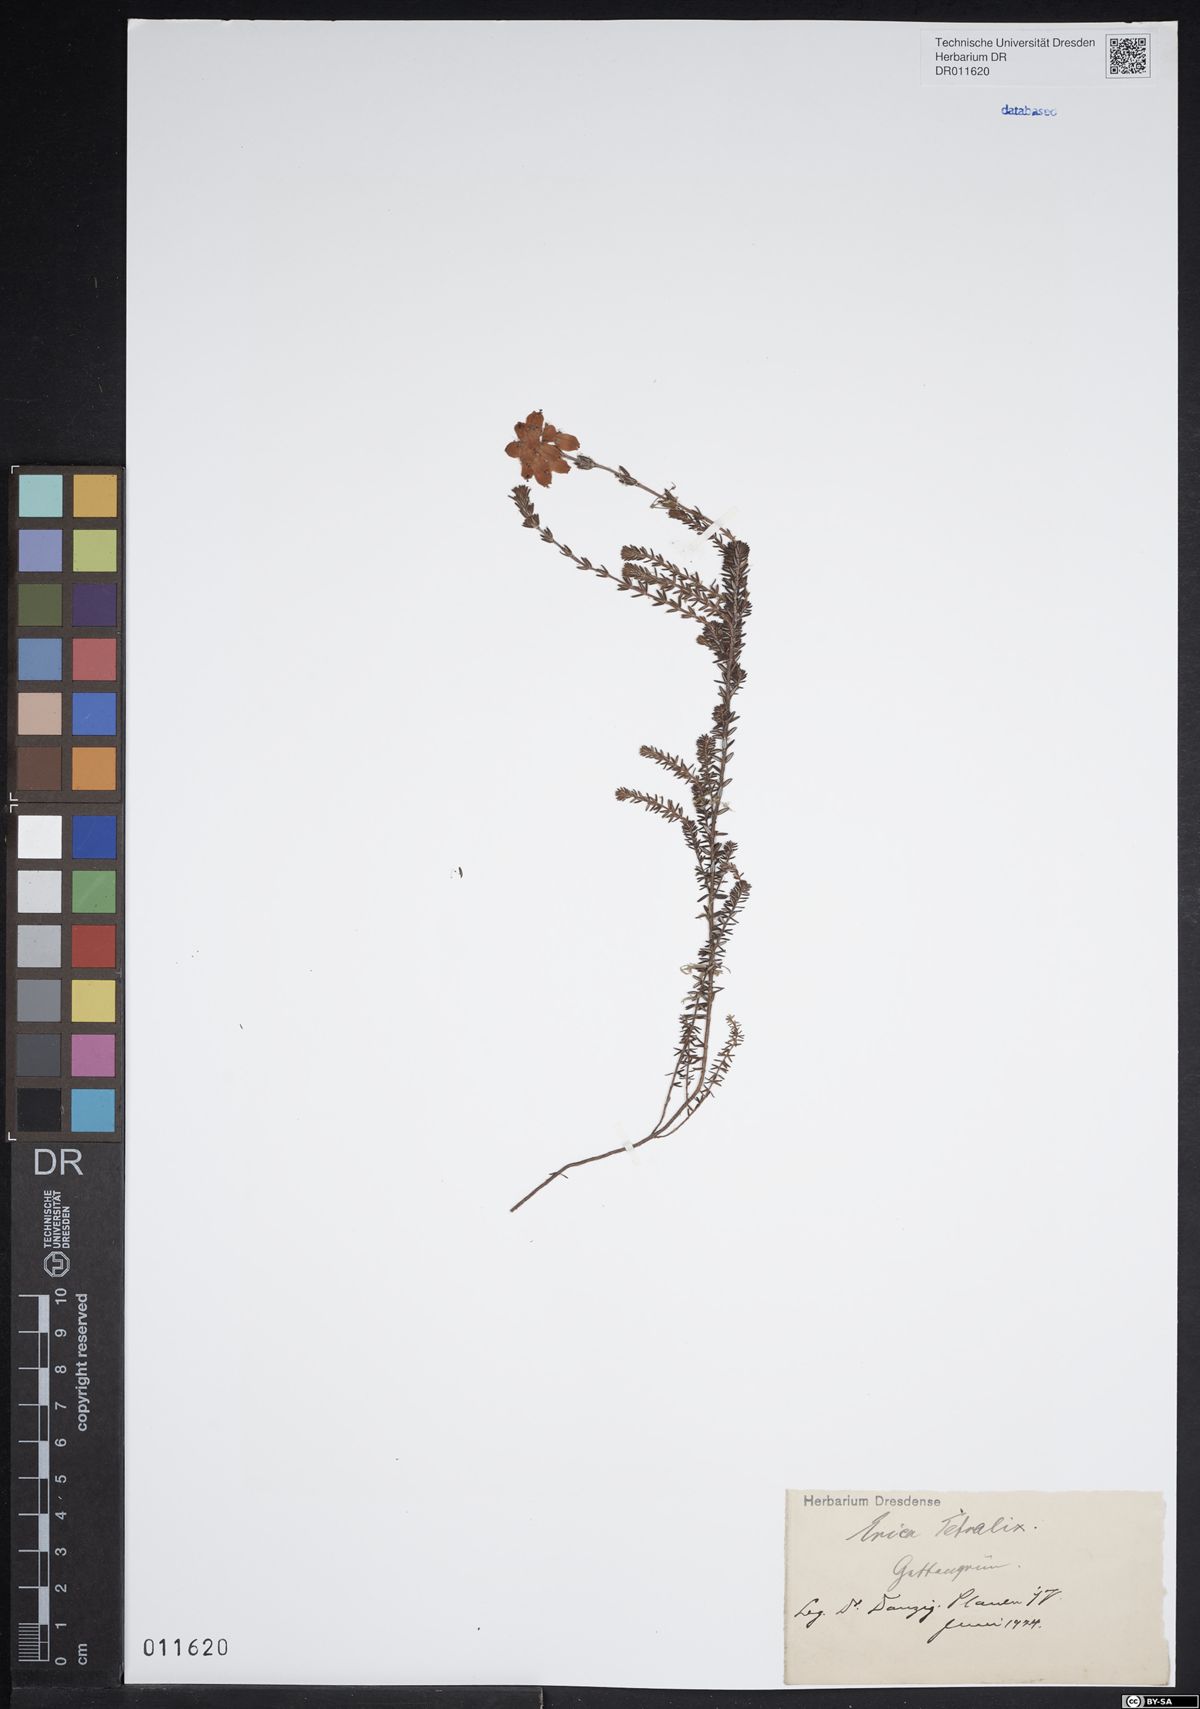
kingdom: Plantae
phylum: Tracheophyta
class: Magnoliopsida
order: Ericales
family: Ericaceae
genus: Erica
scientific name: Erica tetralix
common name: Cross-leaved heath
